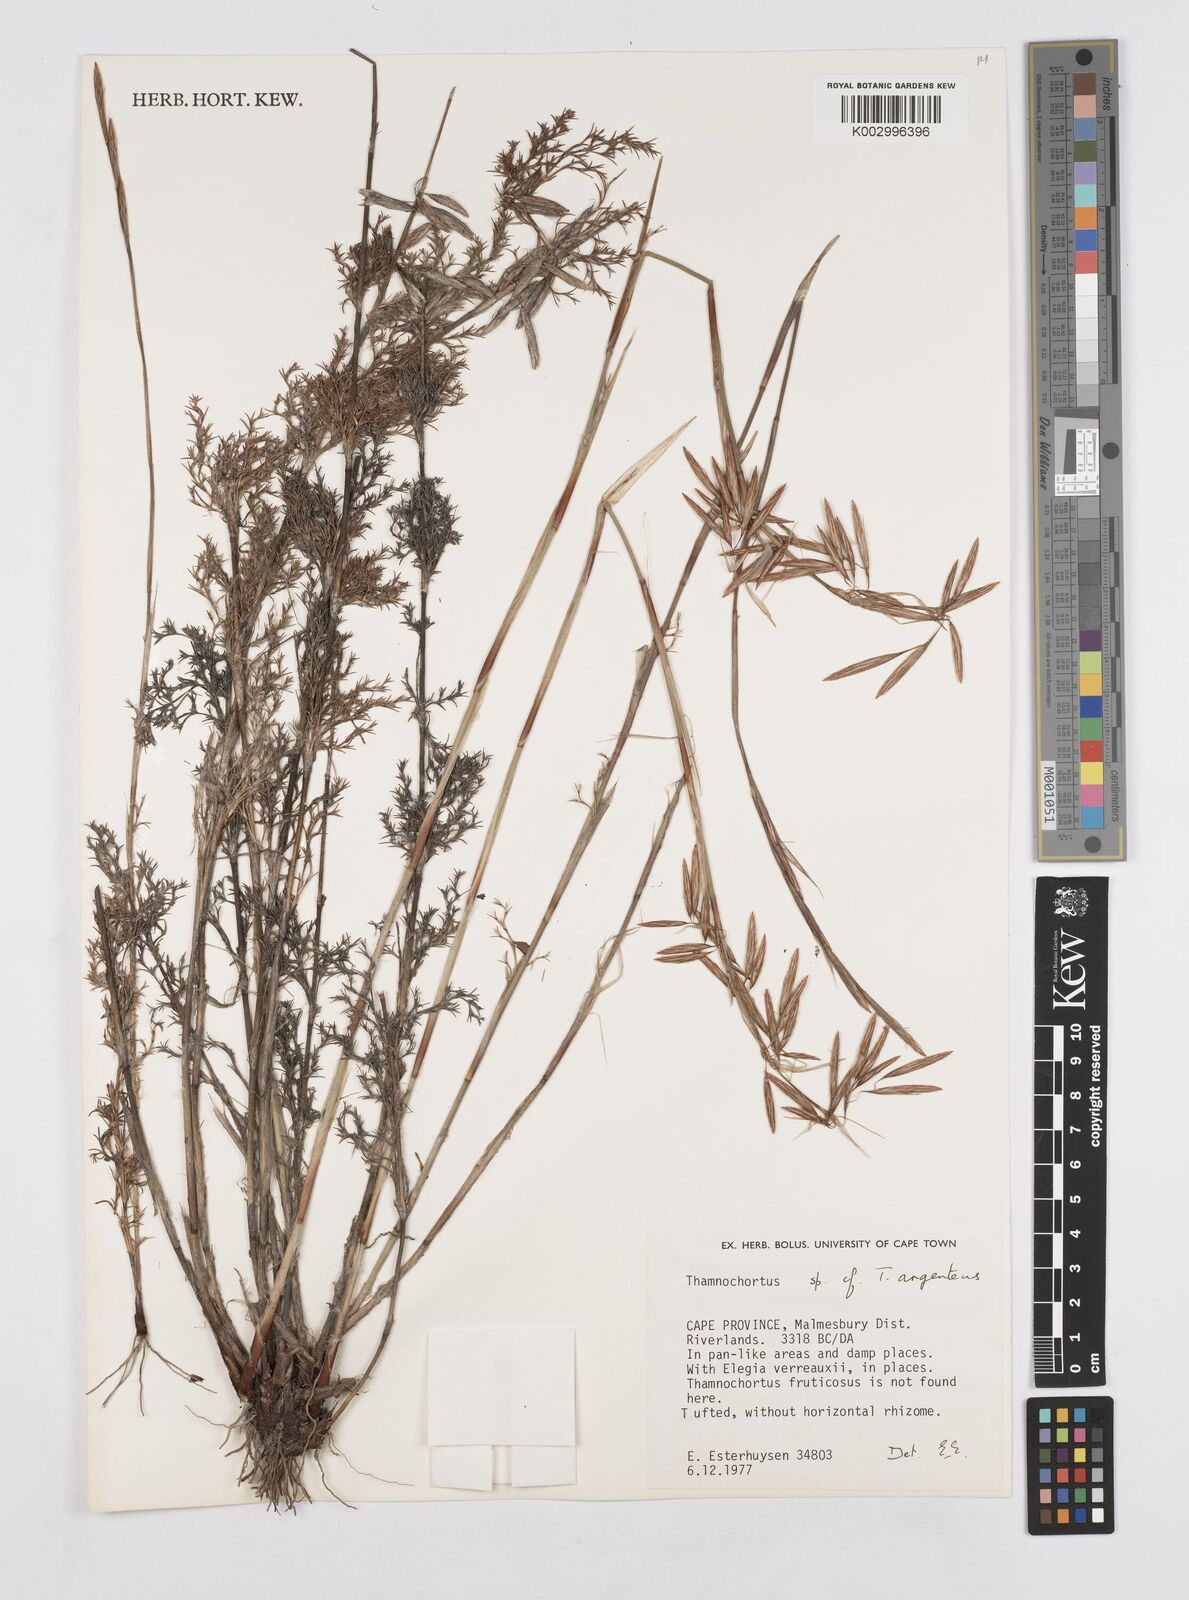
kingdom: Plantae
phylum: Tracheophyta
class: Liliopsida
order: Poales
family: Restionaceae
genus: Hypodiscus
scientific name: Hypodiscus argenteus
